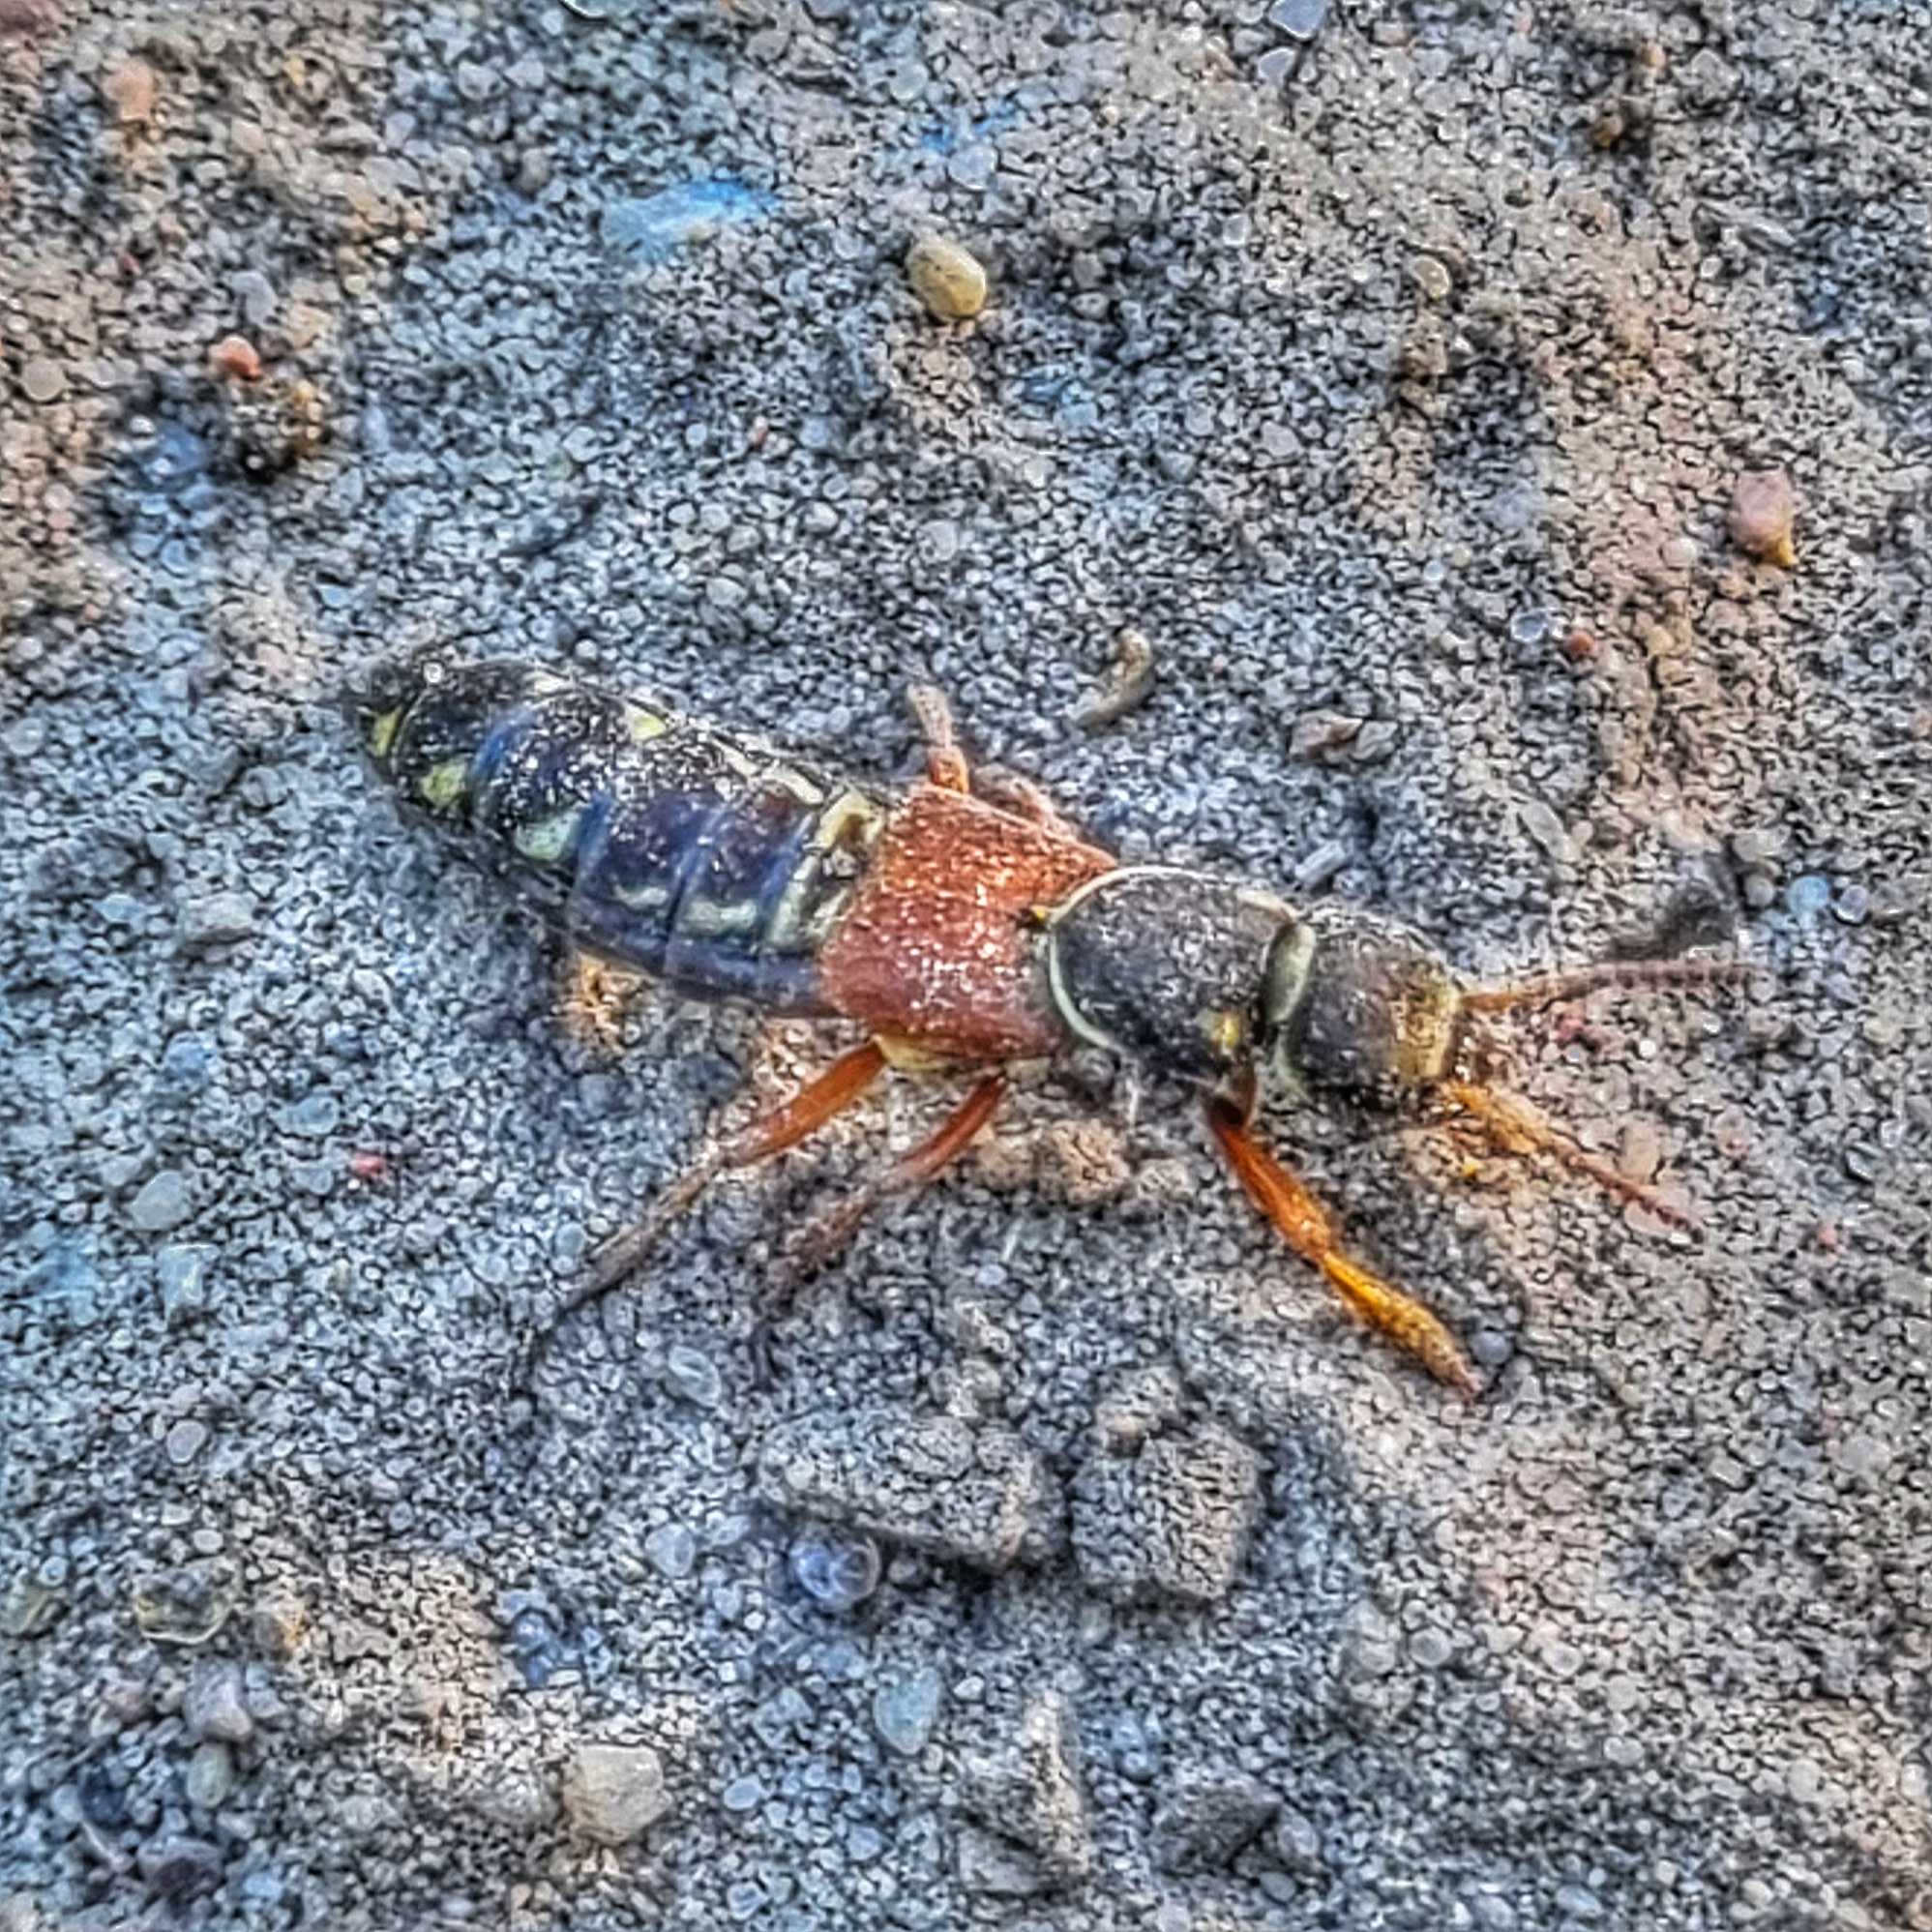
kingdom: Animalia
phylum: Arthropoda
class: Insecta
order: Coleoptera
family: Staphylinidae
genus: Staphylinus
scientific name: Staphylinus caesareus
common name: Kejserrovbille
